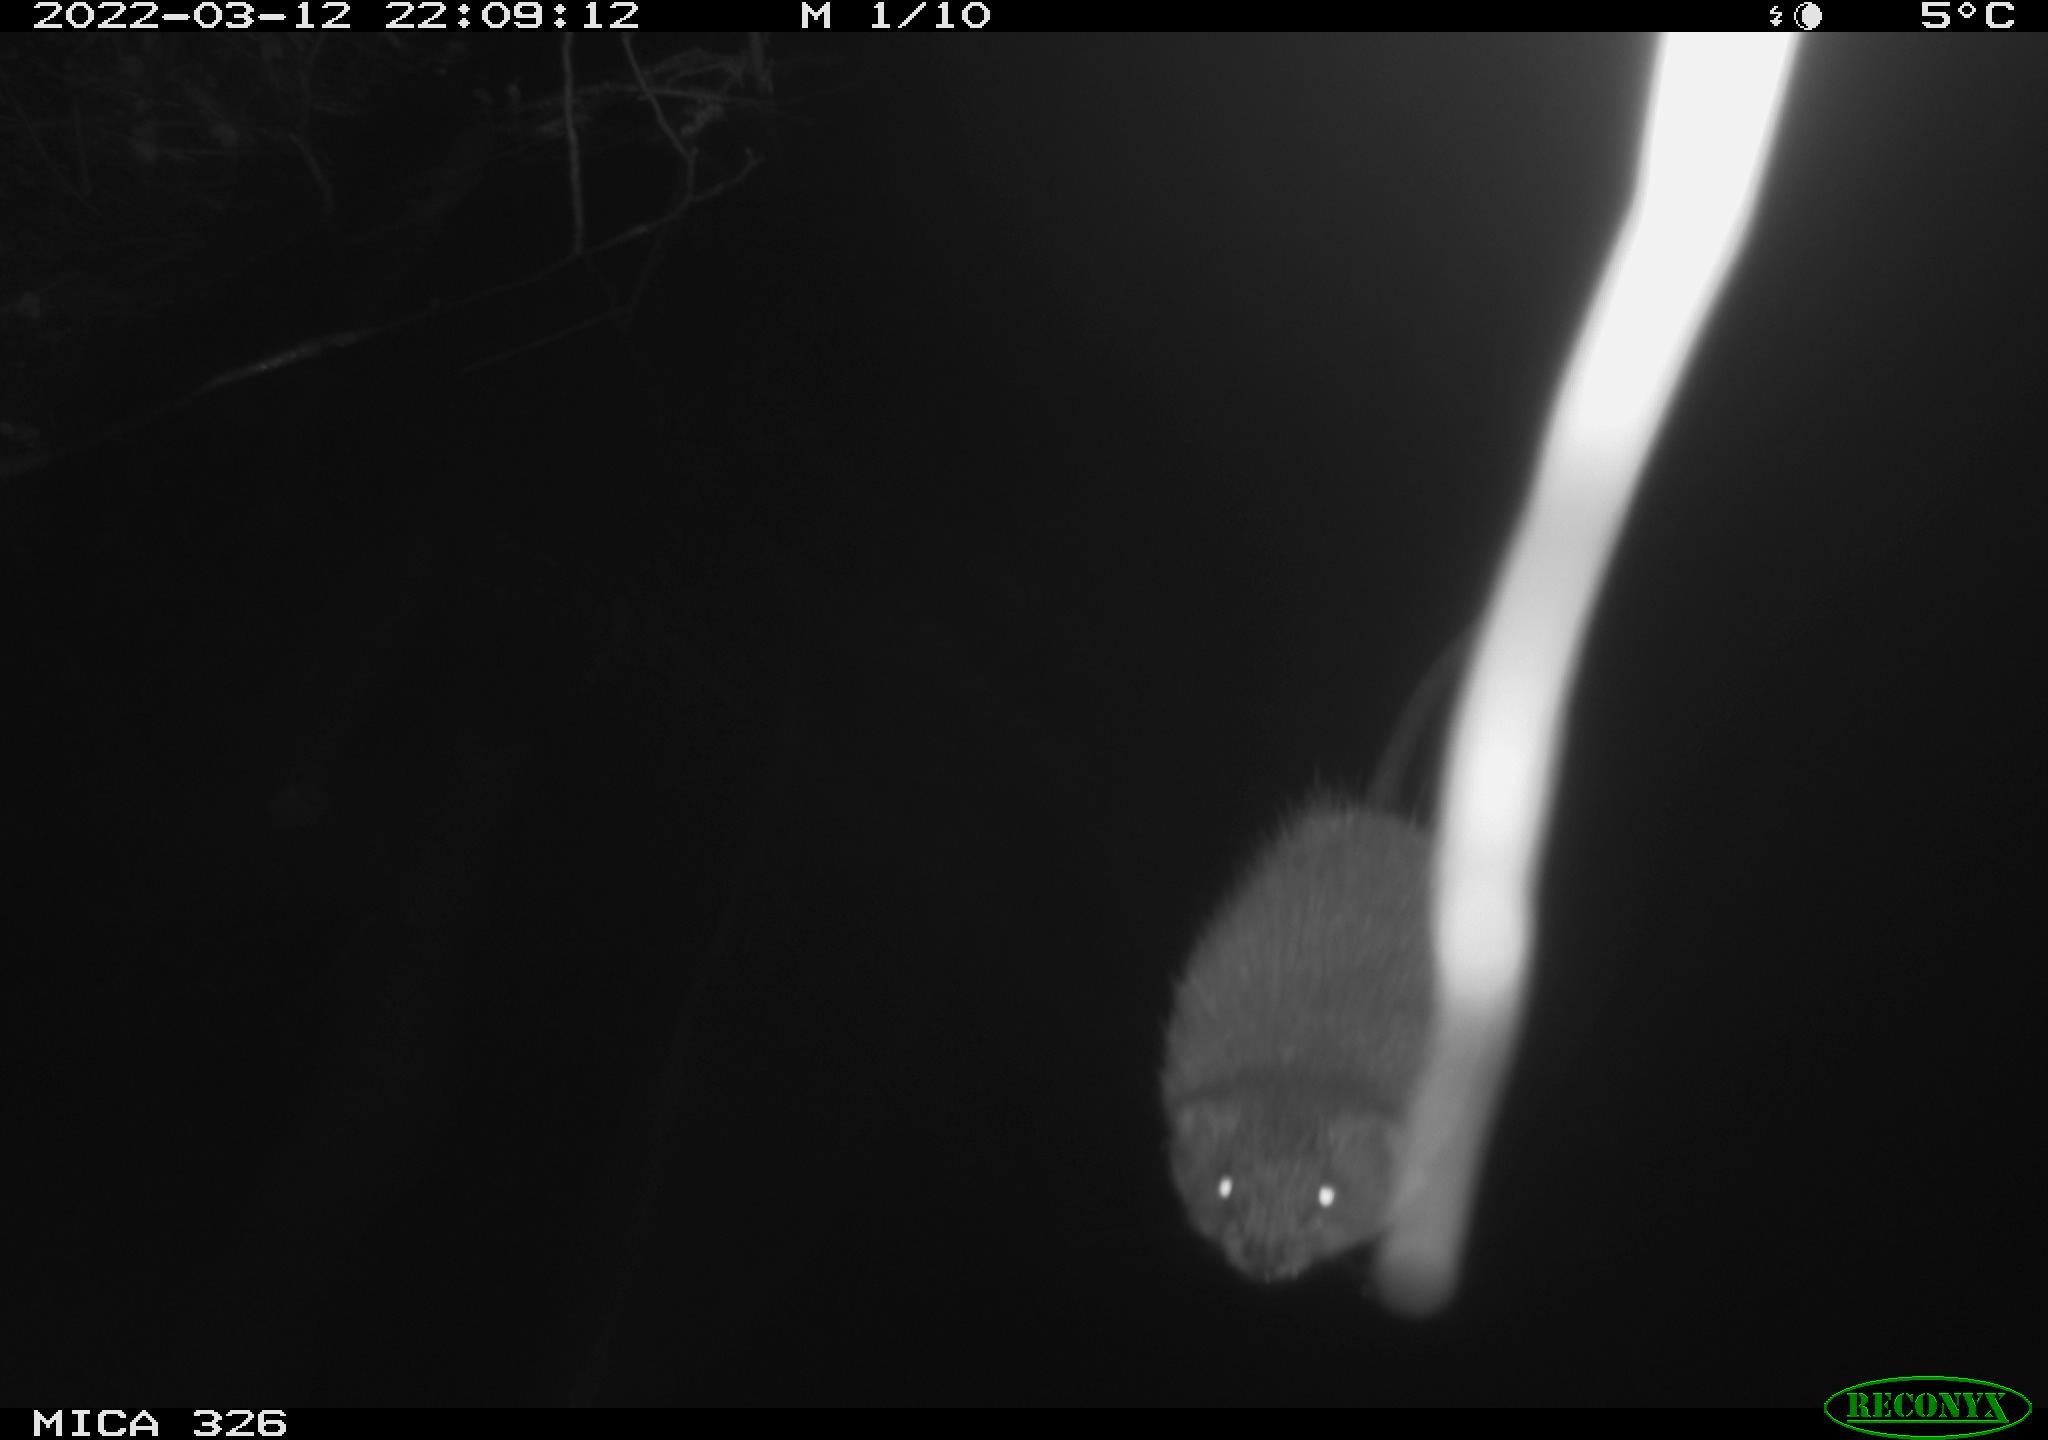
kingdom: Animalia
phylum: Chordata
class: Mammalia
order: Rodentia
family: Cricetidae
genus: Ondatra
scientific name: Ondatra zibethicus
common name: Muskrat
